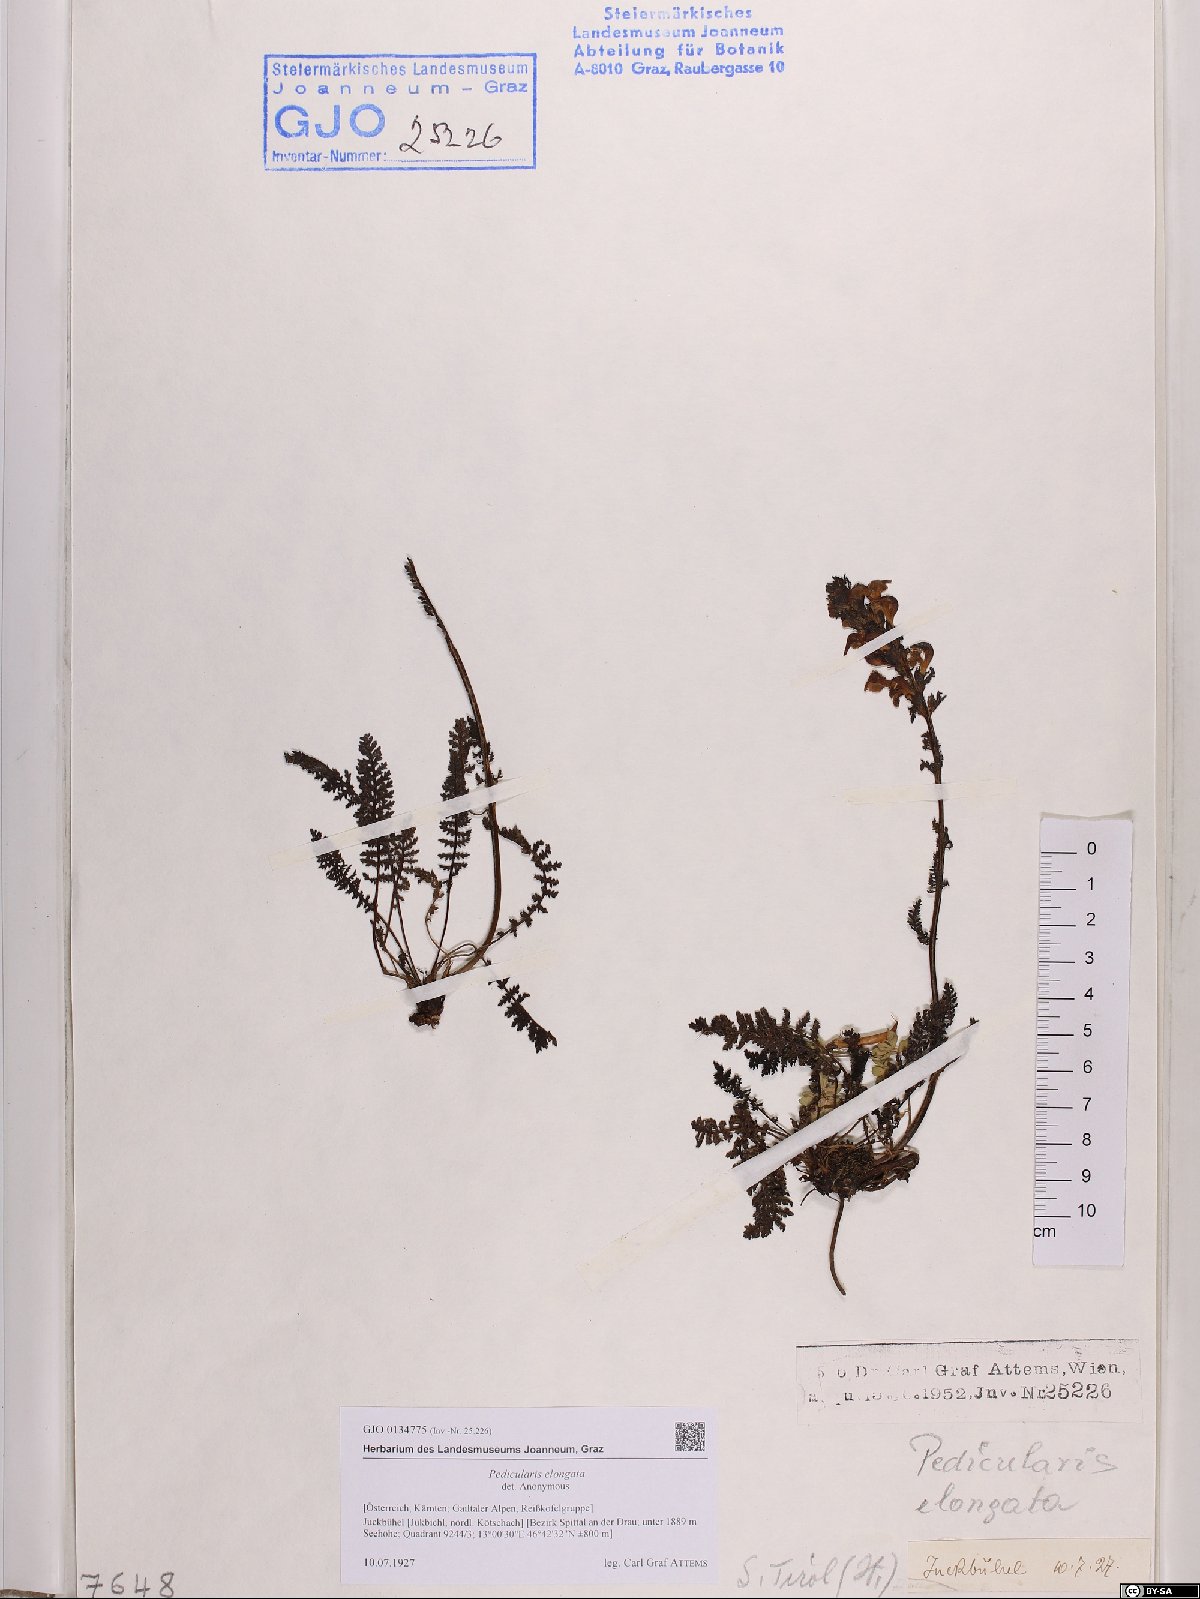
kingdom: Plantae
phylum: Tracheophyta
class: Magnoliopsida
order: Lamiales
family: Orobanchaceae
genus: Pedicularis
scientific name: Pedicularis elongata
